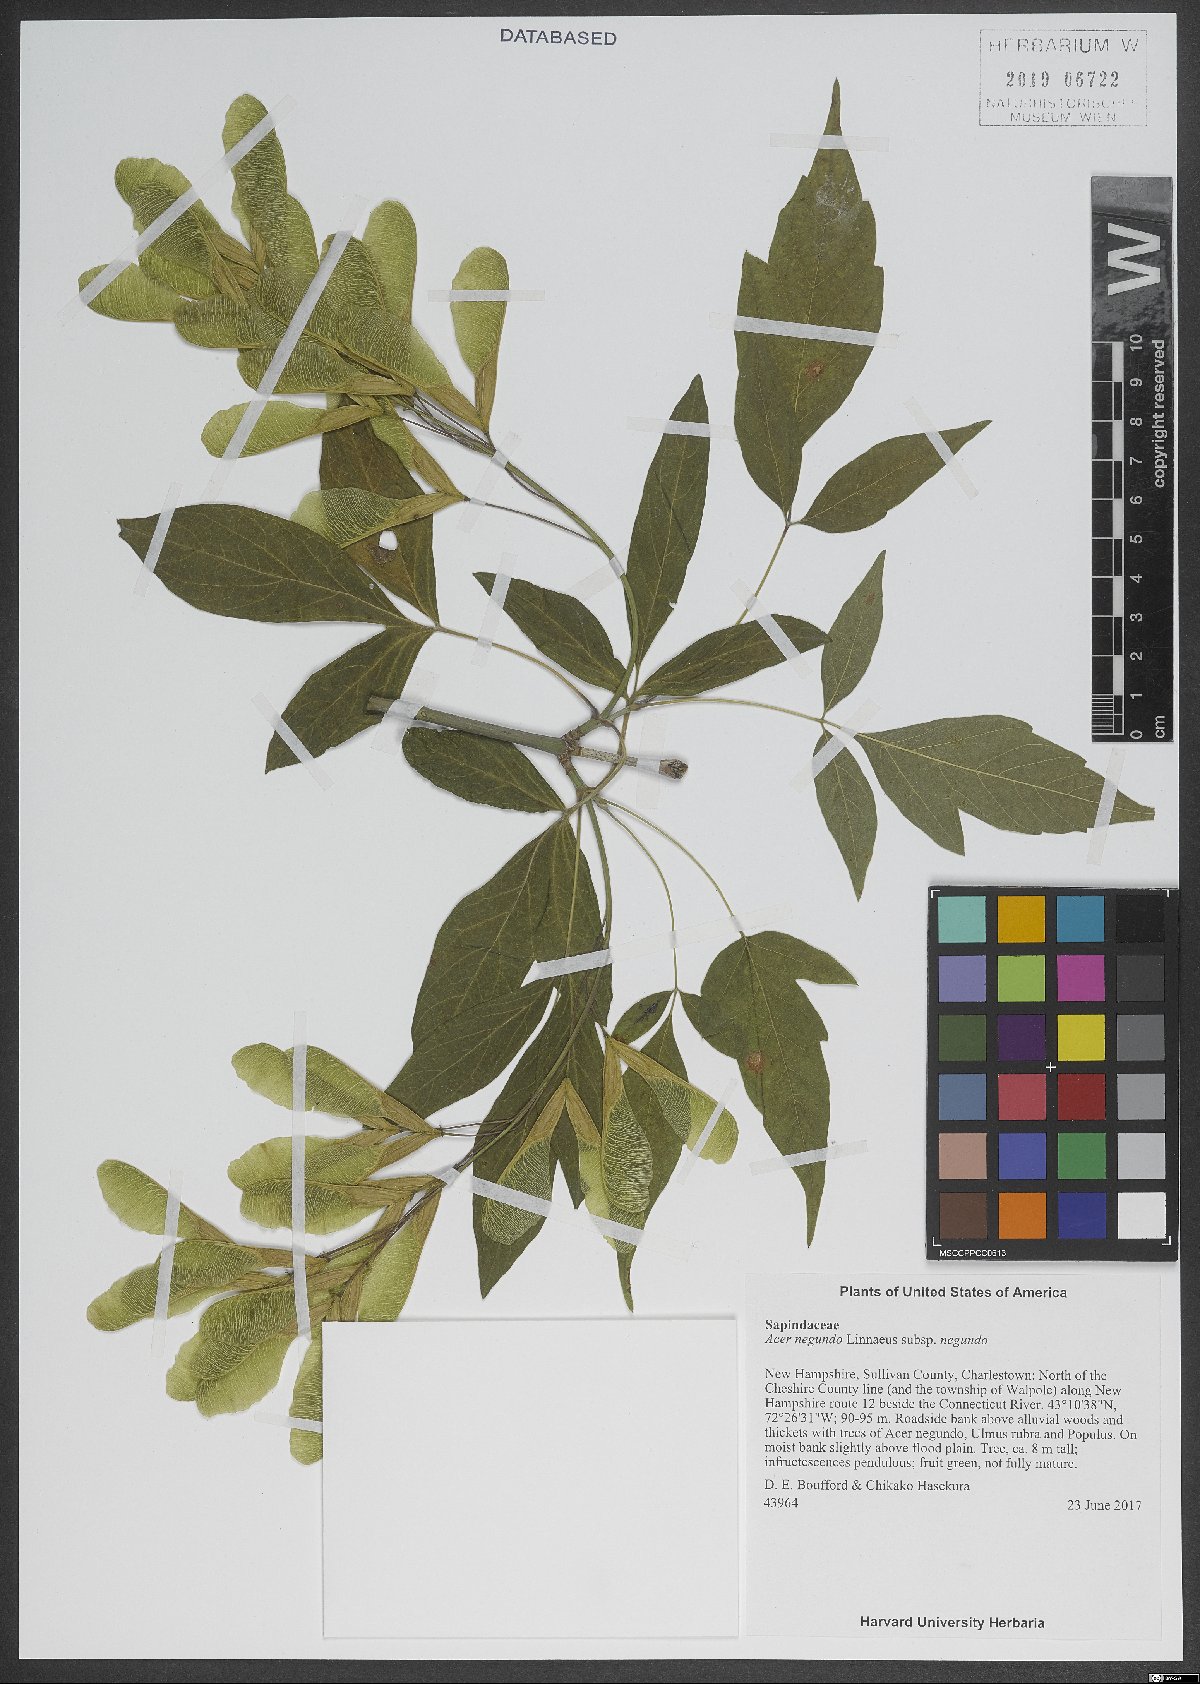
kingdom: Plantae
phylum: Tracheophyta
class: Magnoliopsida
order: Sapindales
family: Sapindaceae
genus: Acer
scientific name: Acer negundo
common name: Ashleaf maple
